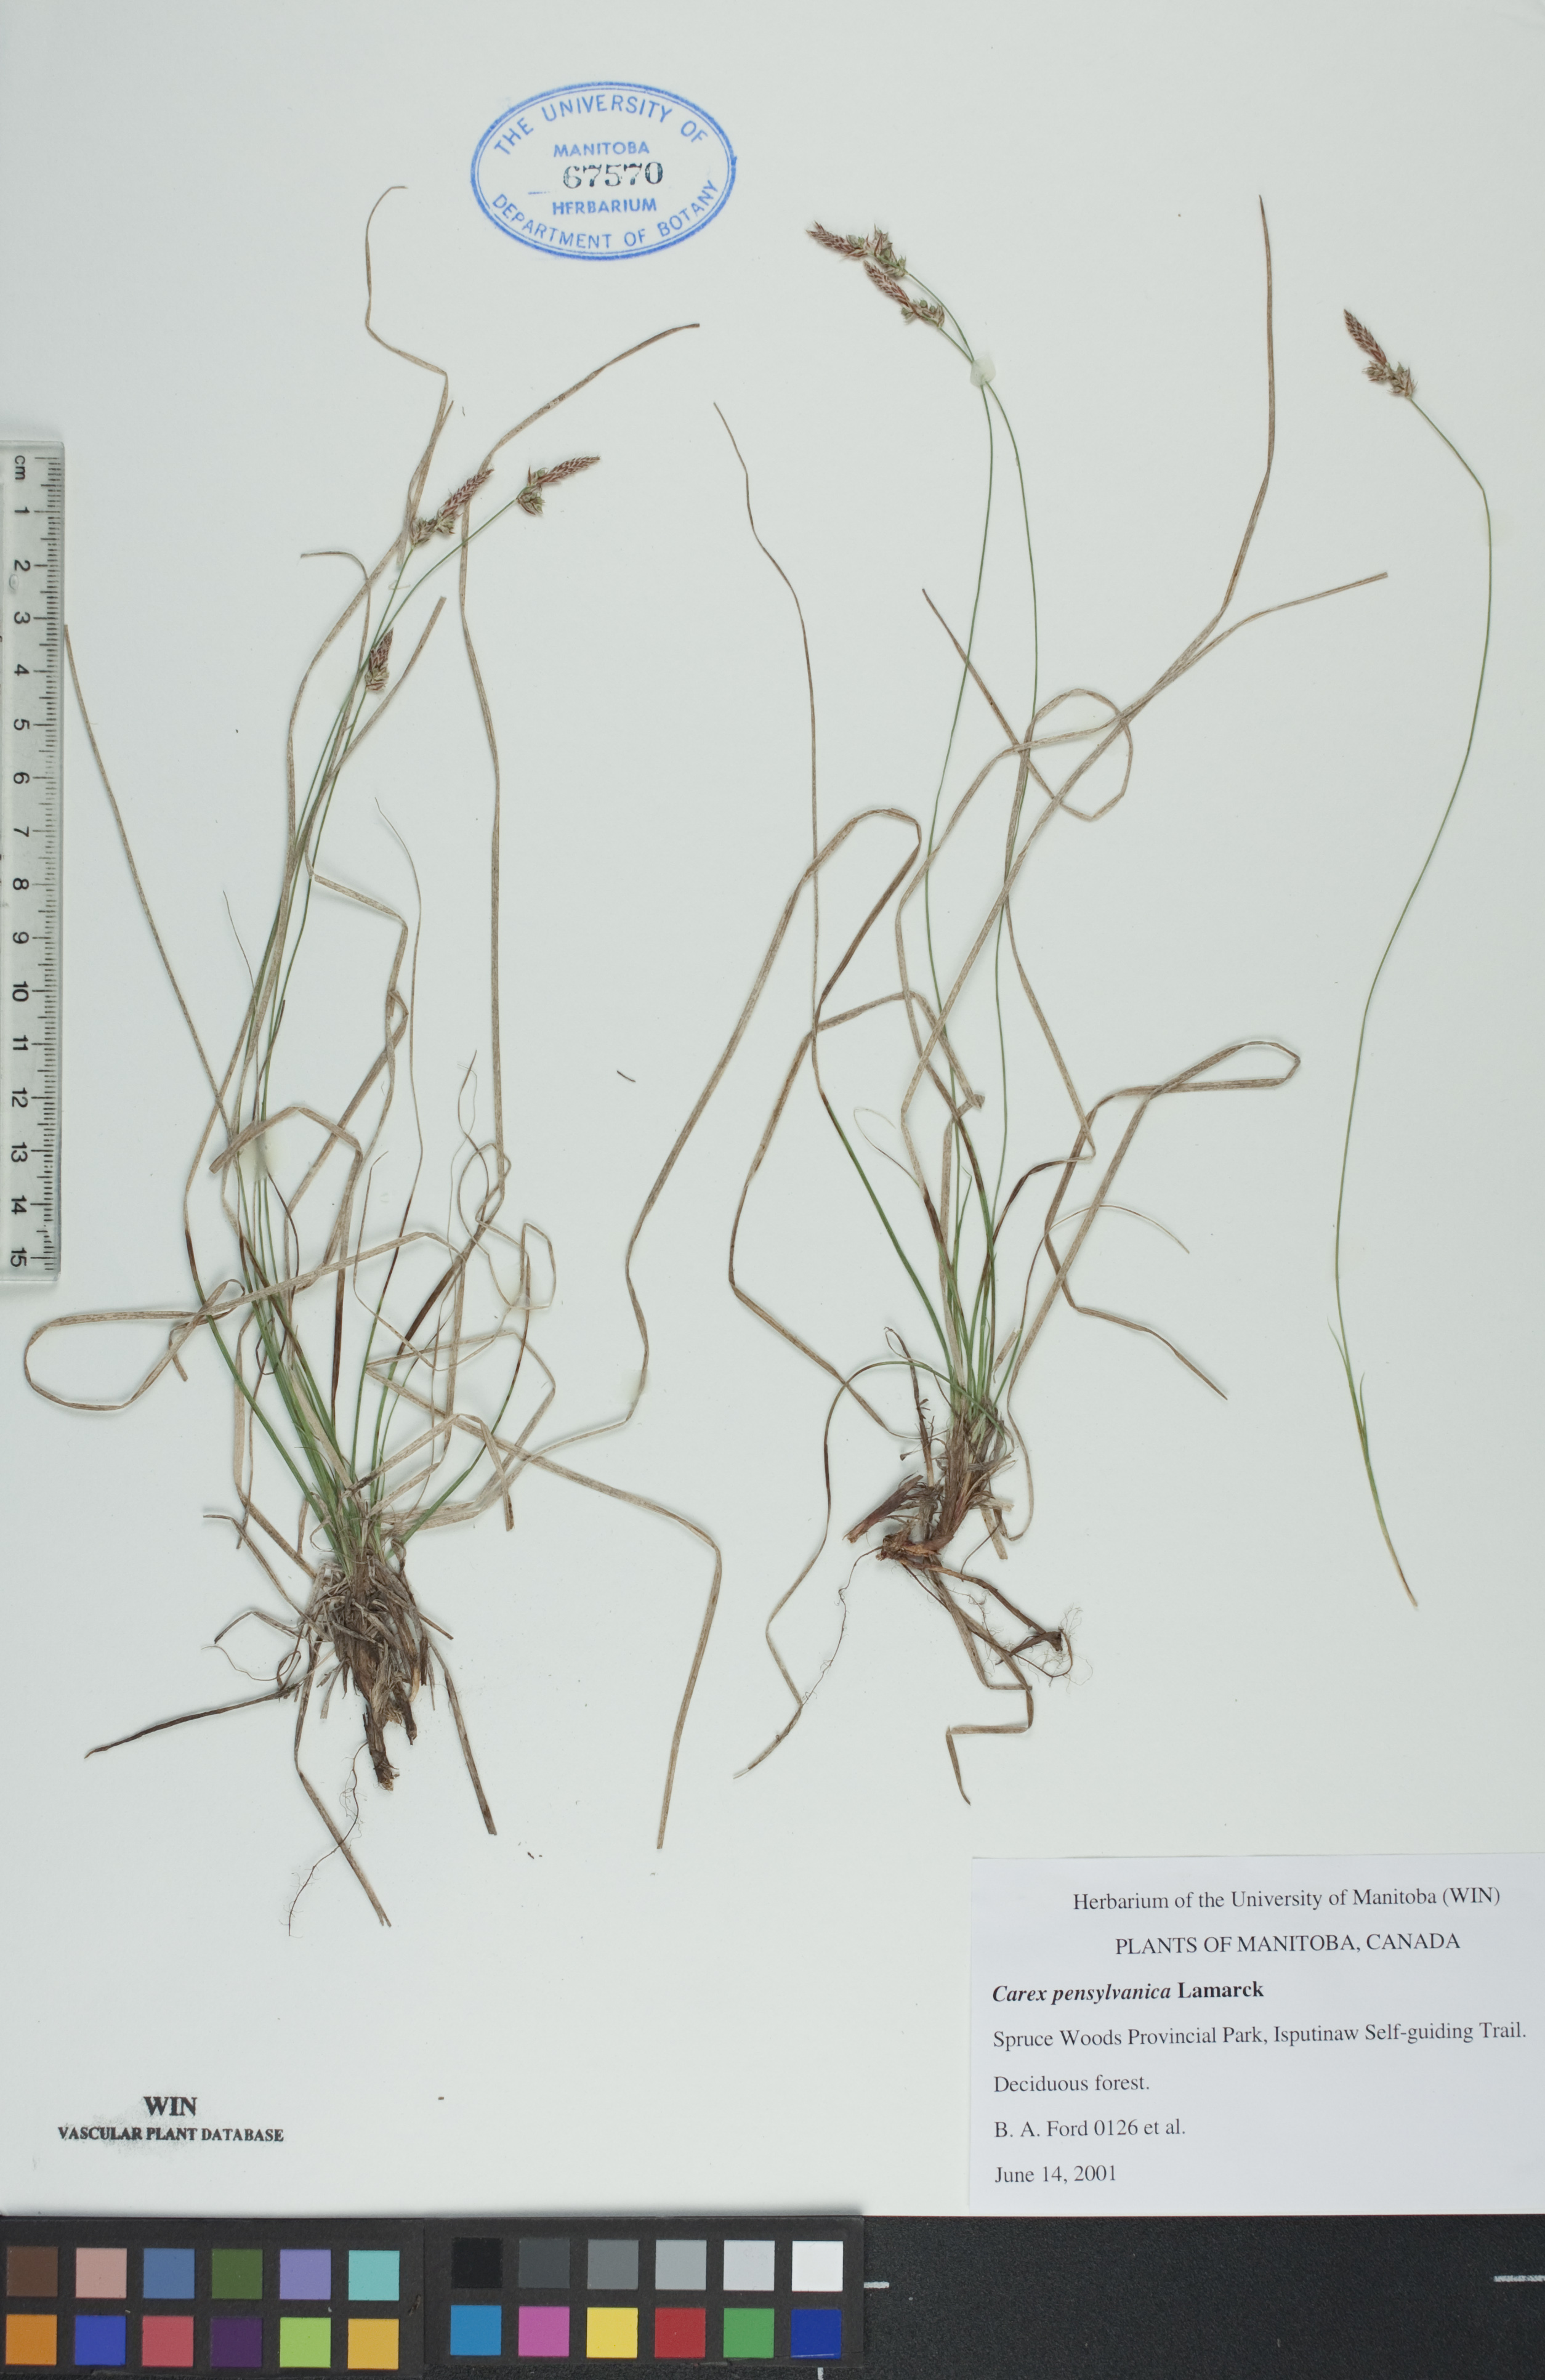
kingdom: Plantae
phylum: Tracheophyta
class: Liliopsida
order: Poales
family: Cyperaceae
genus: Carex
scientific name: Carex pensylvanica
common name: Common oak sedge
